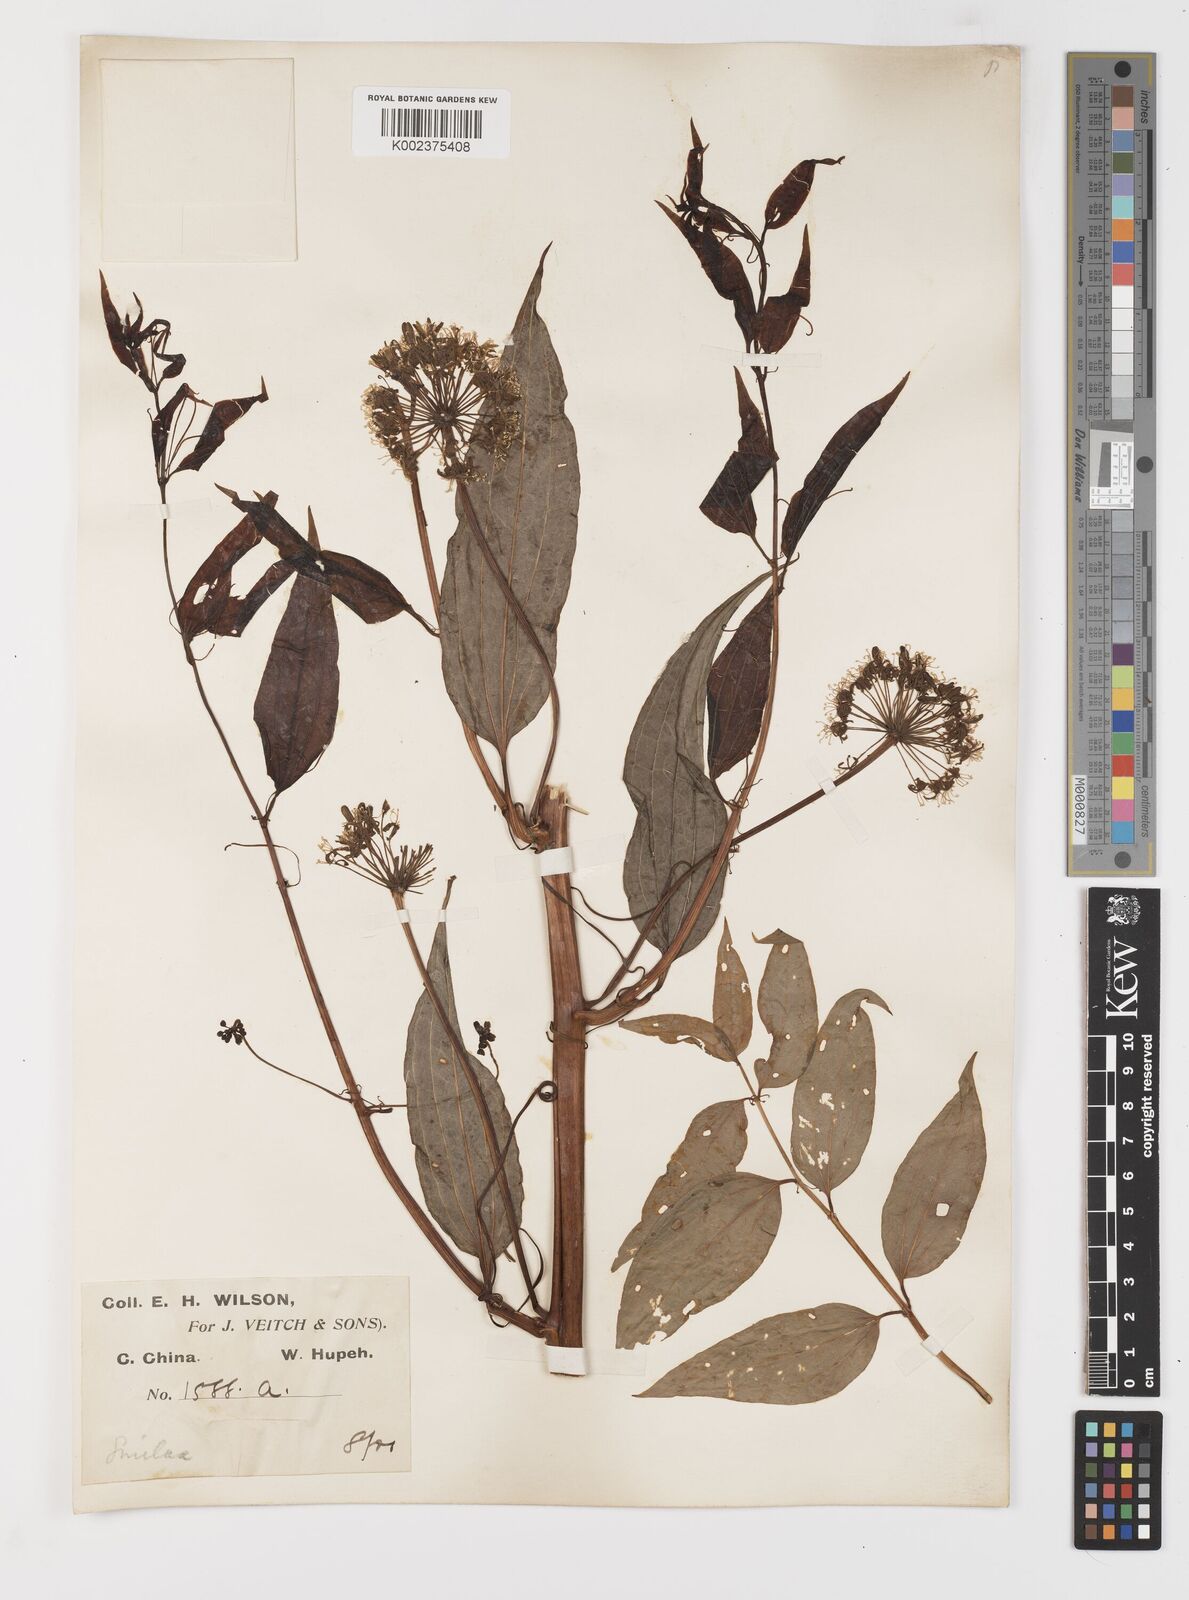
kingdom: Plantae
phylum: Tracheophyta
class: Liliopsida
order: Liliales
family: Smilacaceae
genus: Smilax
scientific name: Smilax riparia
